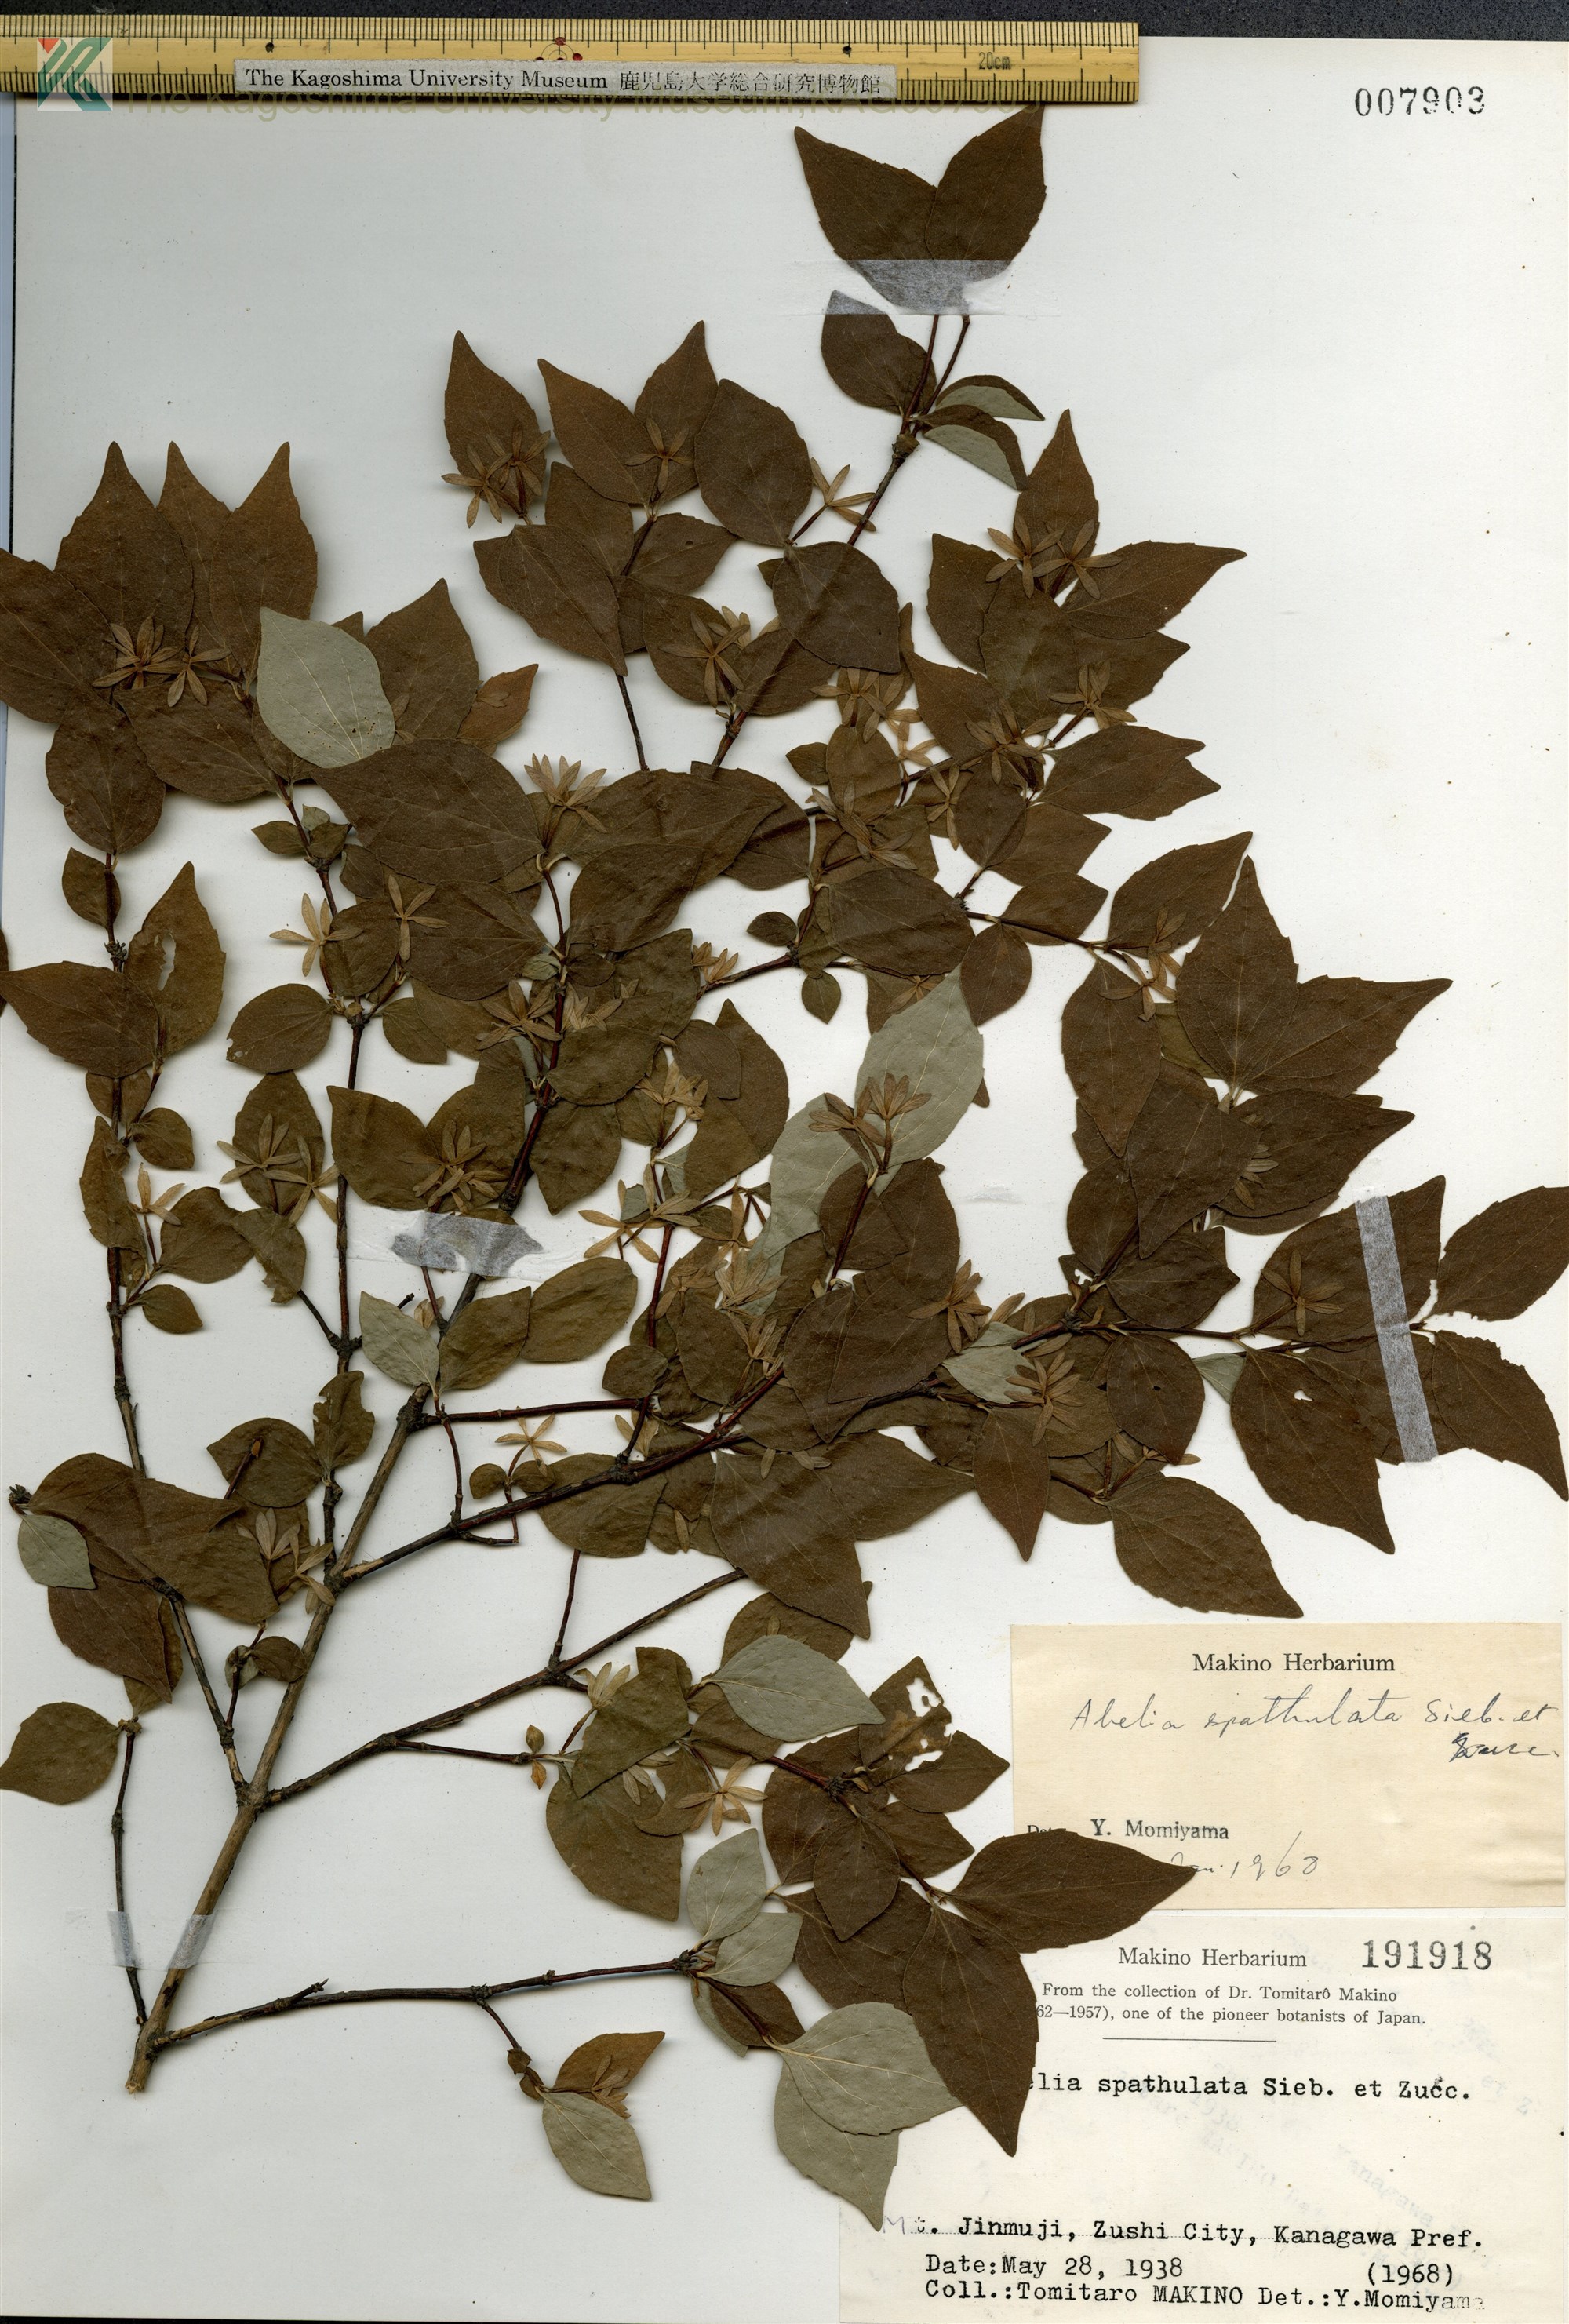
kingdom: Plantae
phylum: Tracheophyta
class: Magnoliopsida
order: Dipsacales
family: Caprifoliaceae
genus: Diabelia
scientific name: Diabelia spathulata
